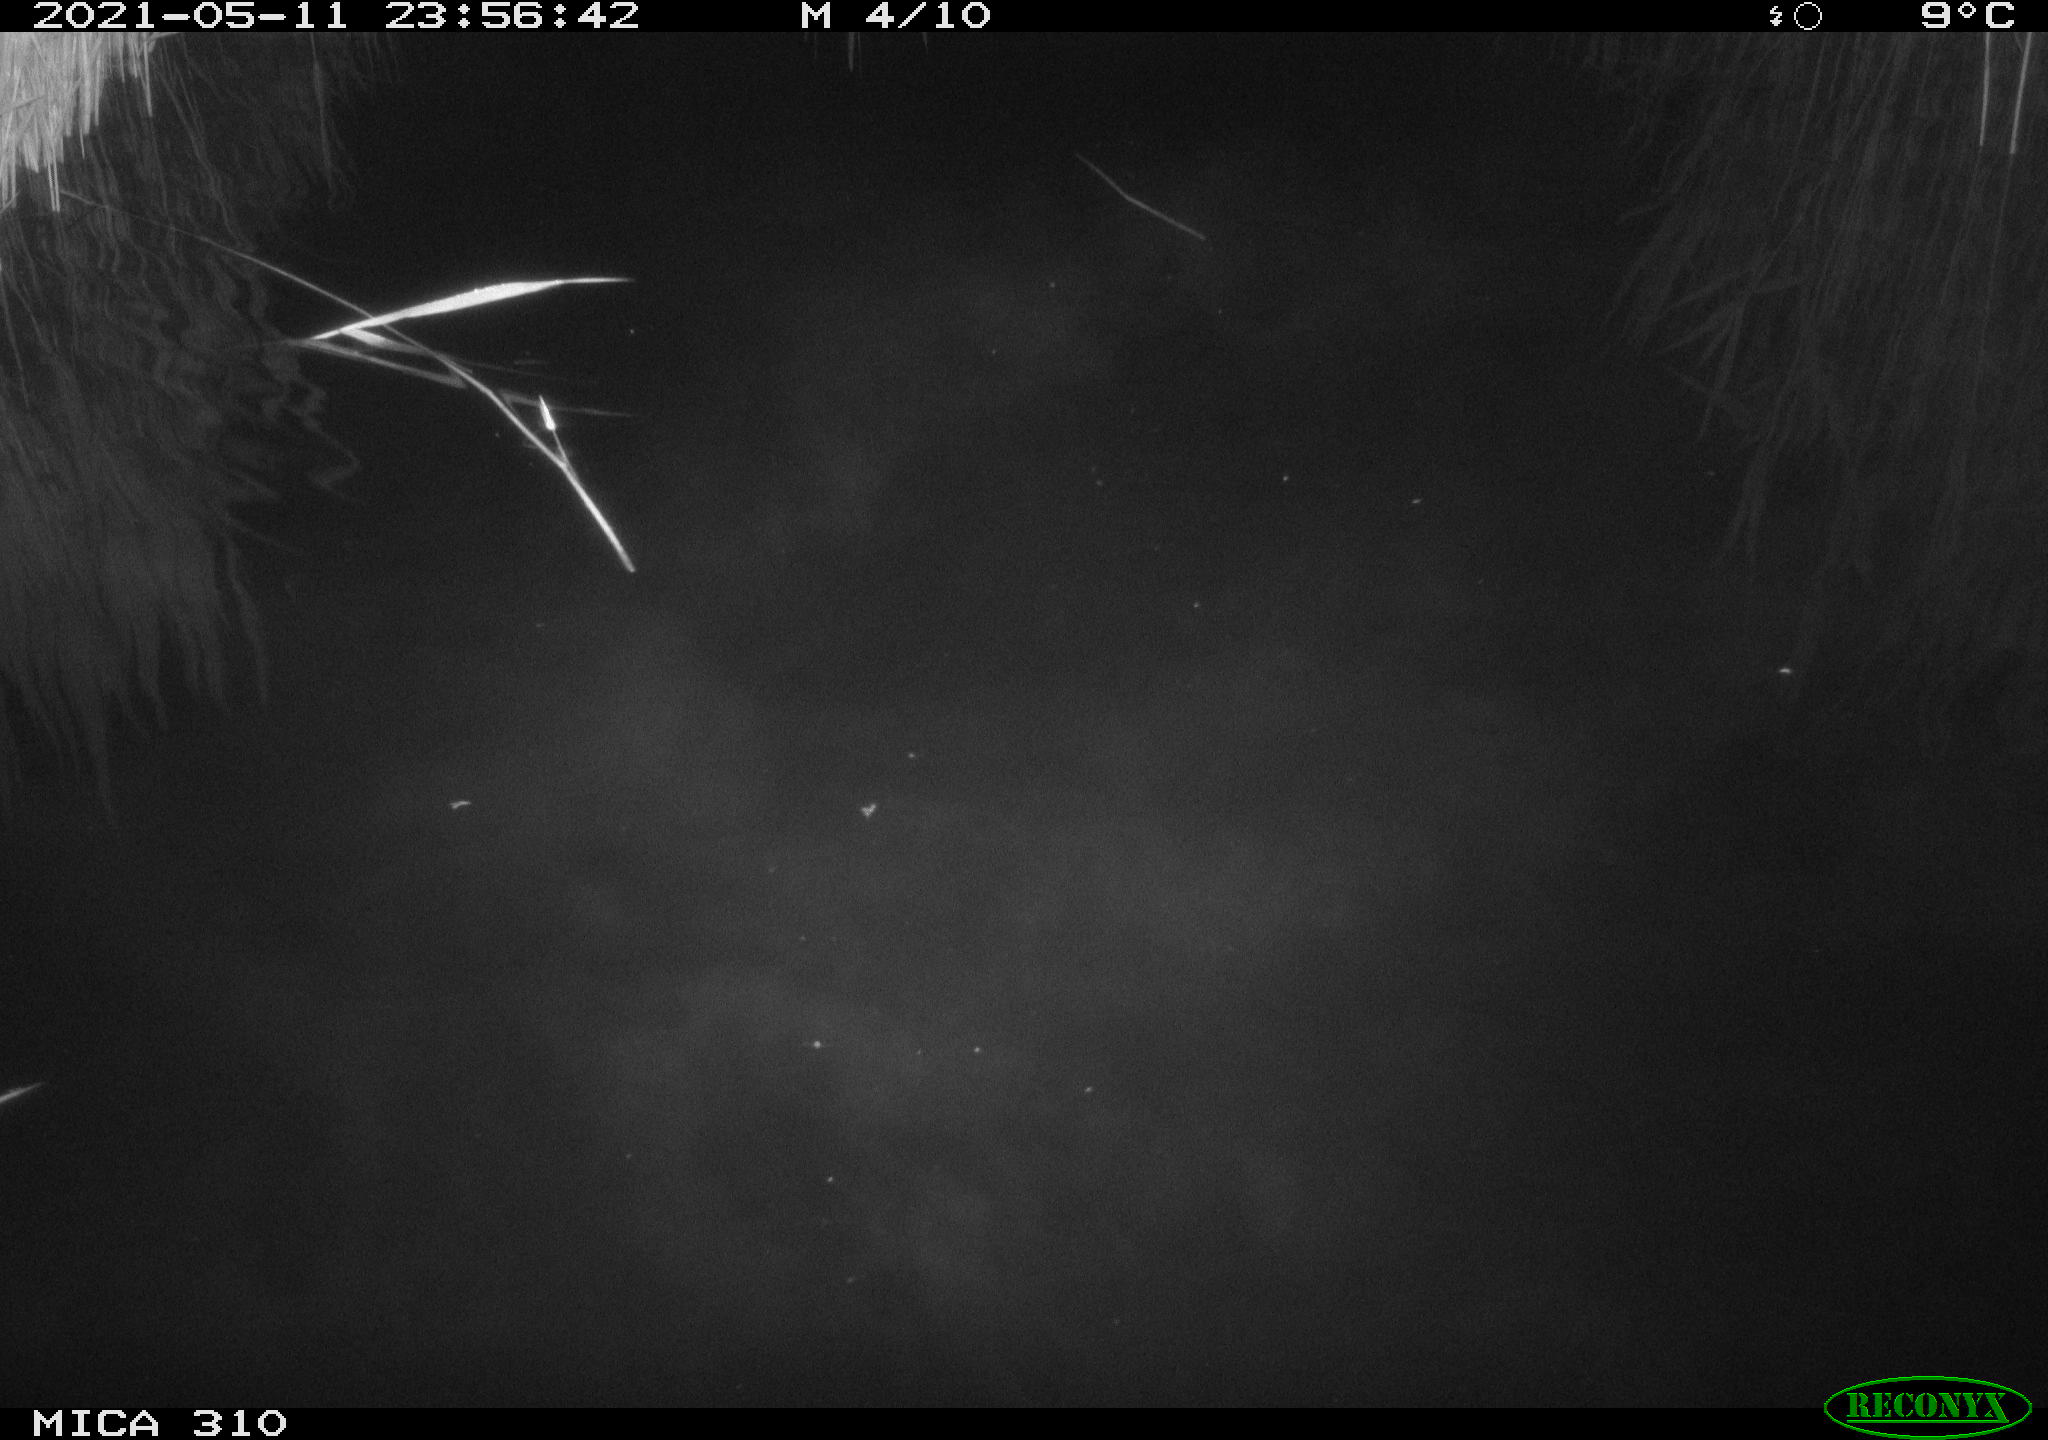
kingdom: Animalia
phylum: Chordata
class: Aves
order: Anseriformes
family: Anatidae
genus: Anas
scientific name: Anas platyrhynchos
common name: Mallard
